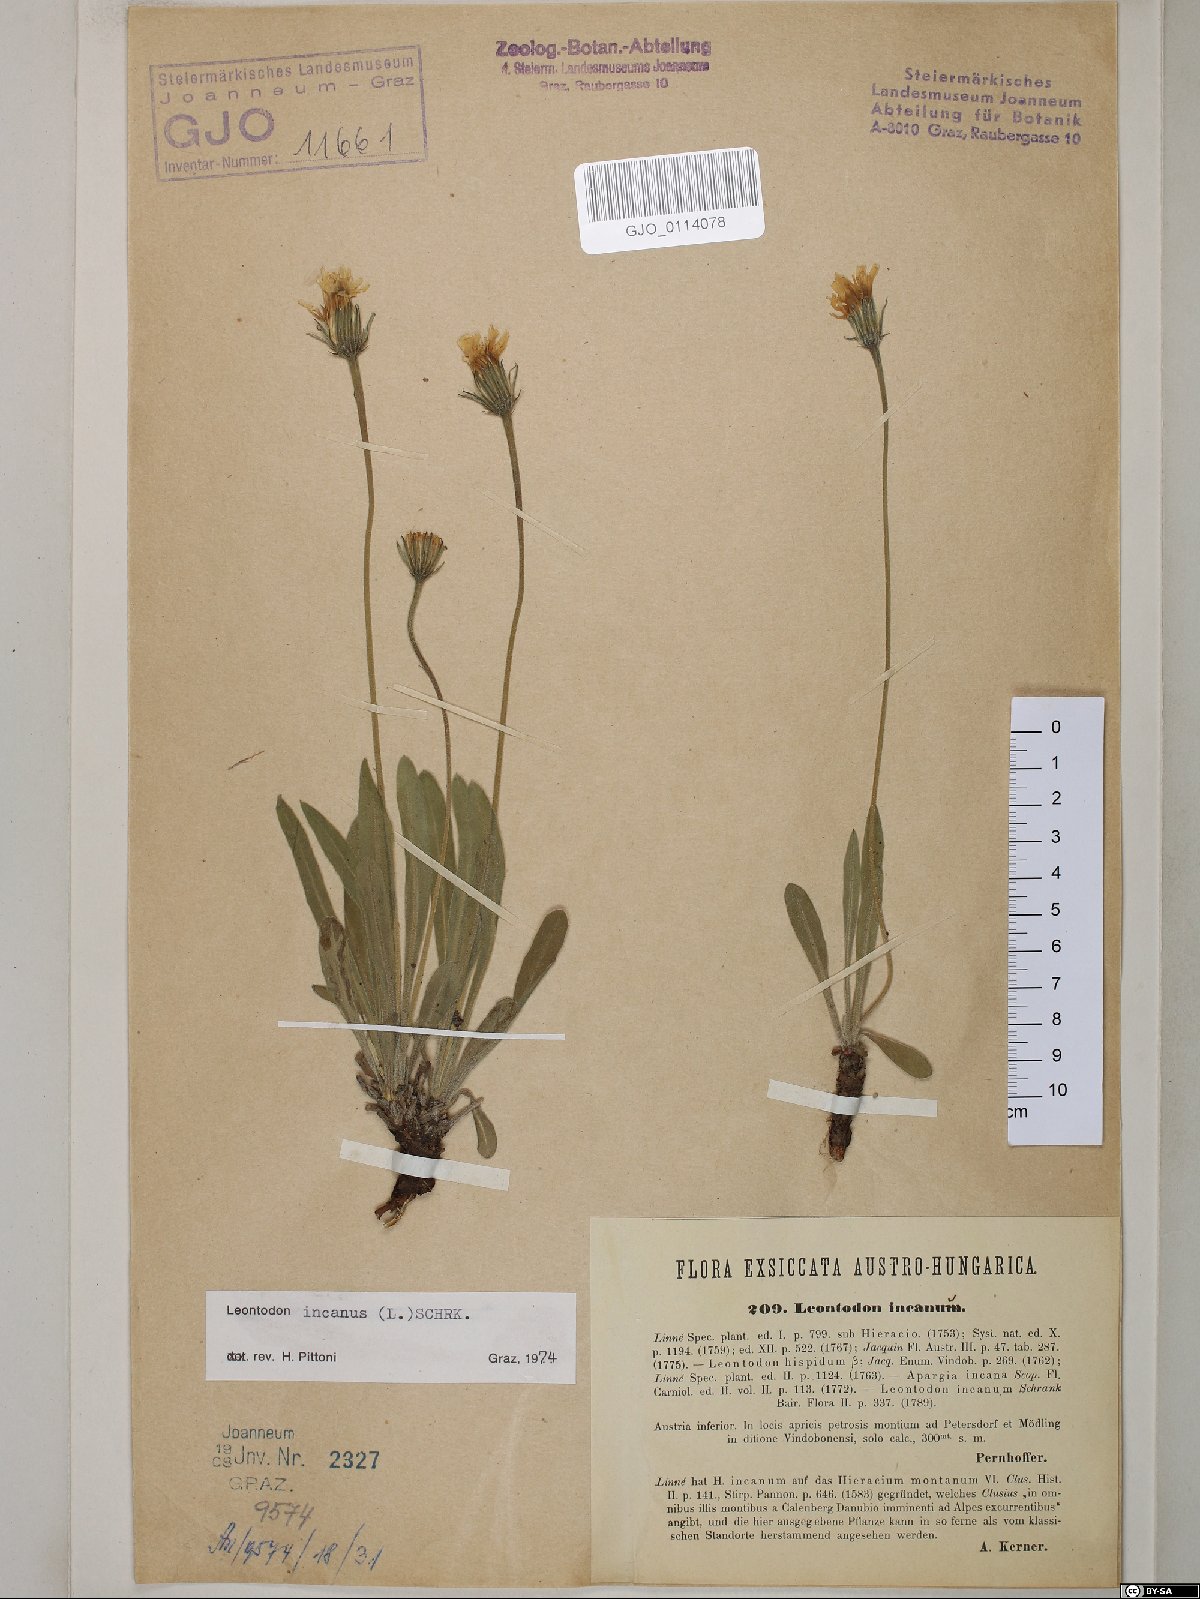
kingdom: Plantae
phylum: Tracheophyta
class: Magnoliopsida
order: Asterales
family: Asteraceae
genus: Leontodon
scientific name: Leontodon incanus
